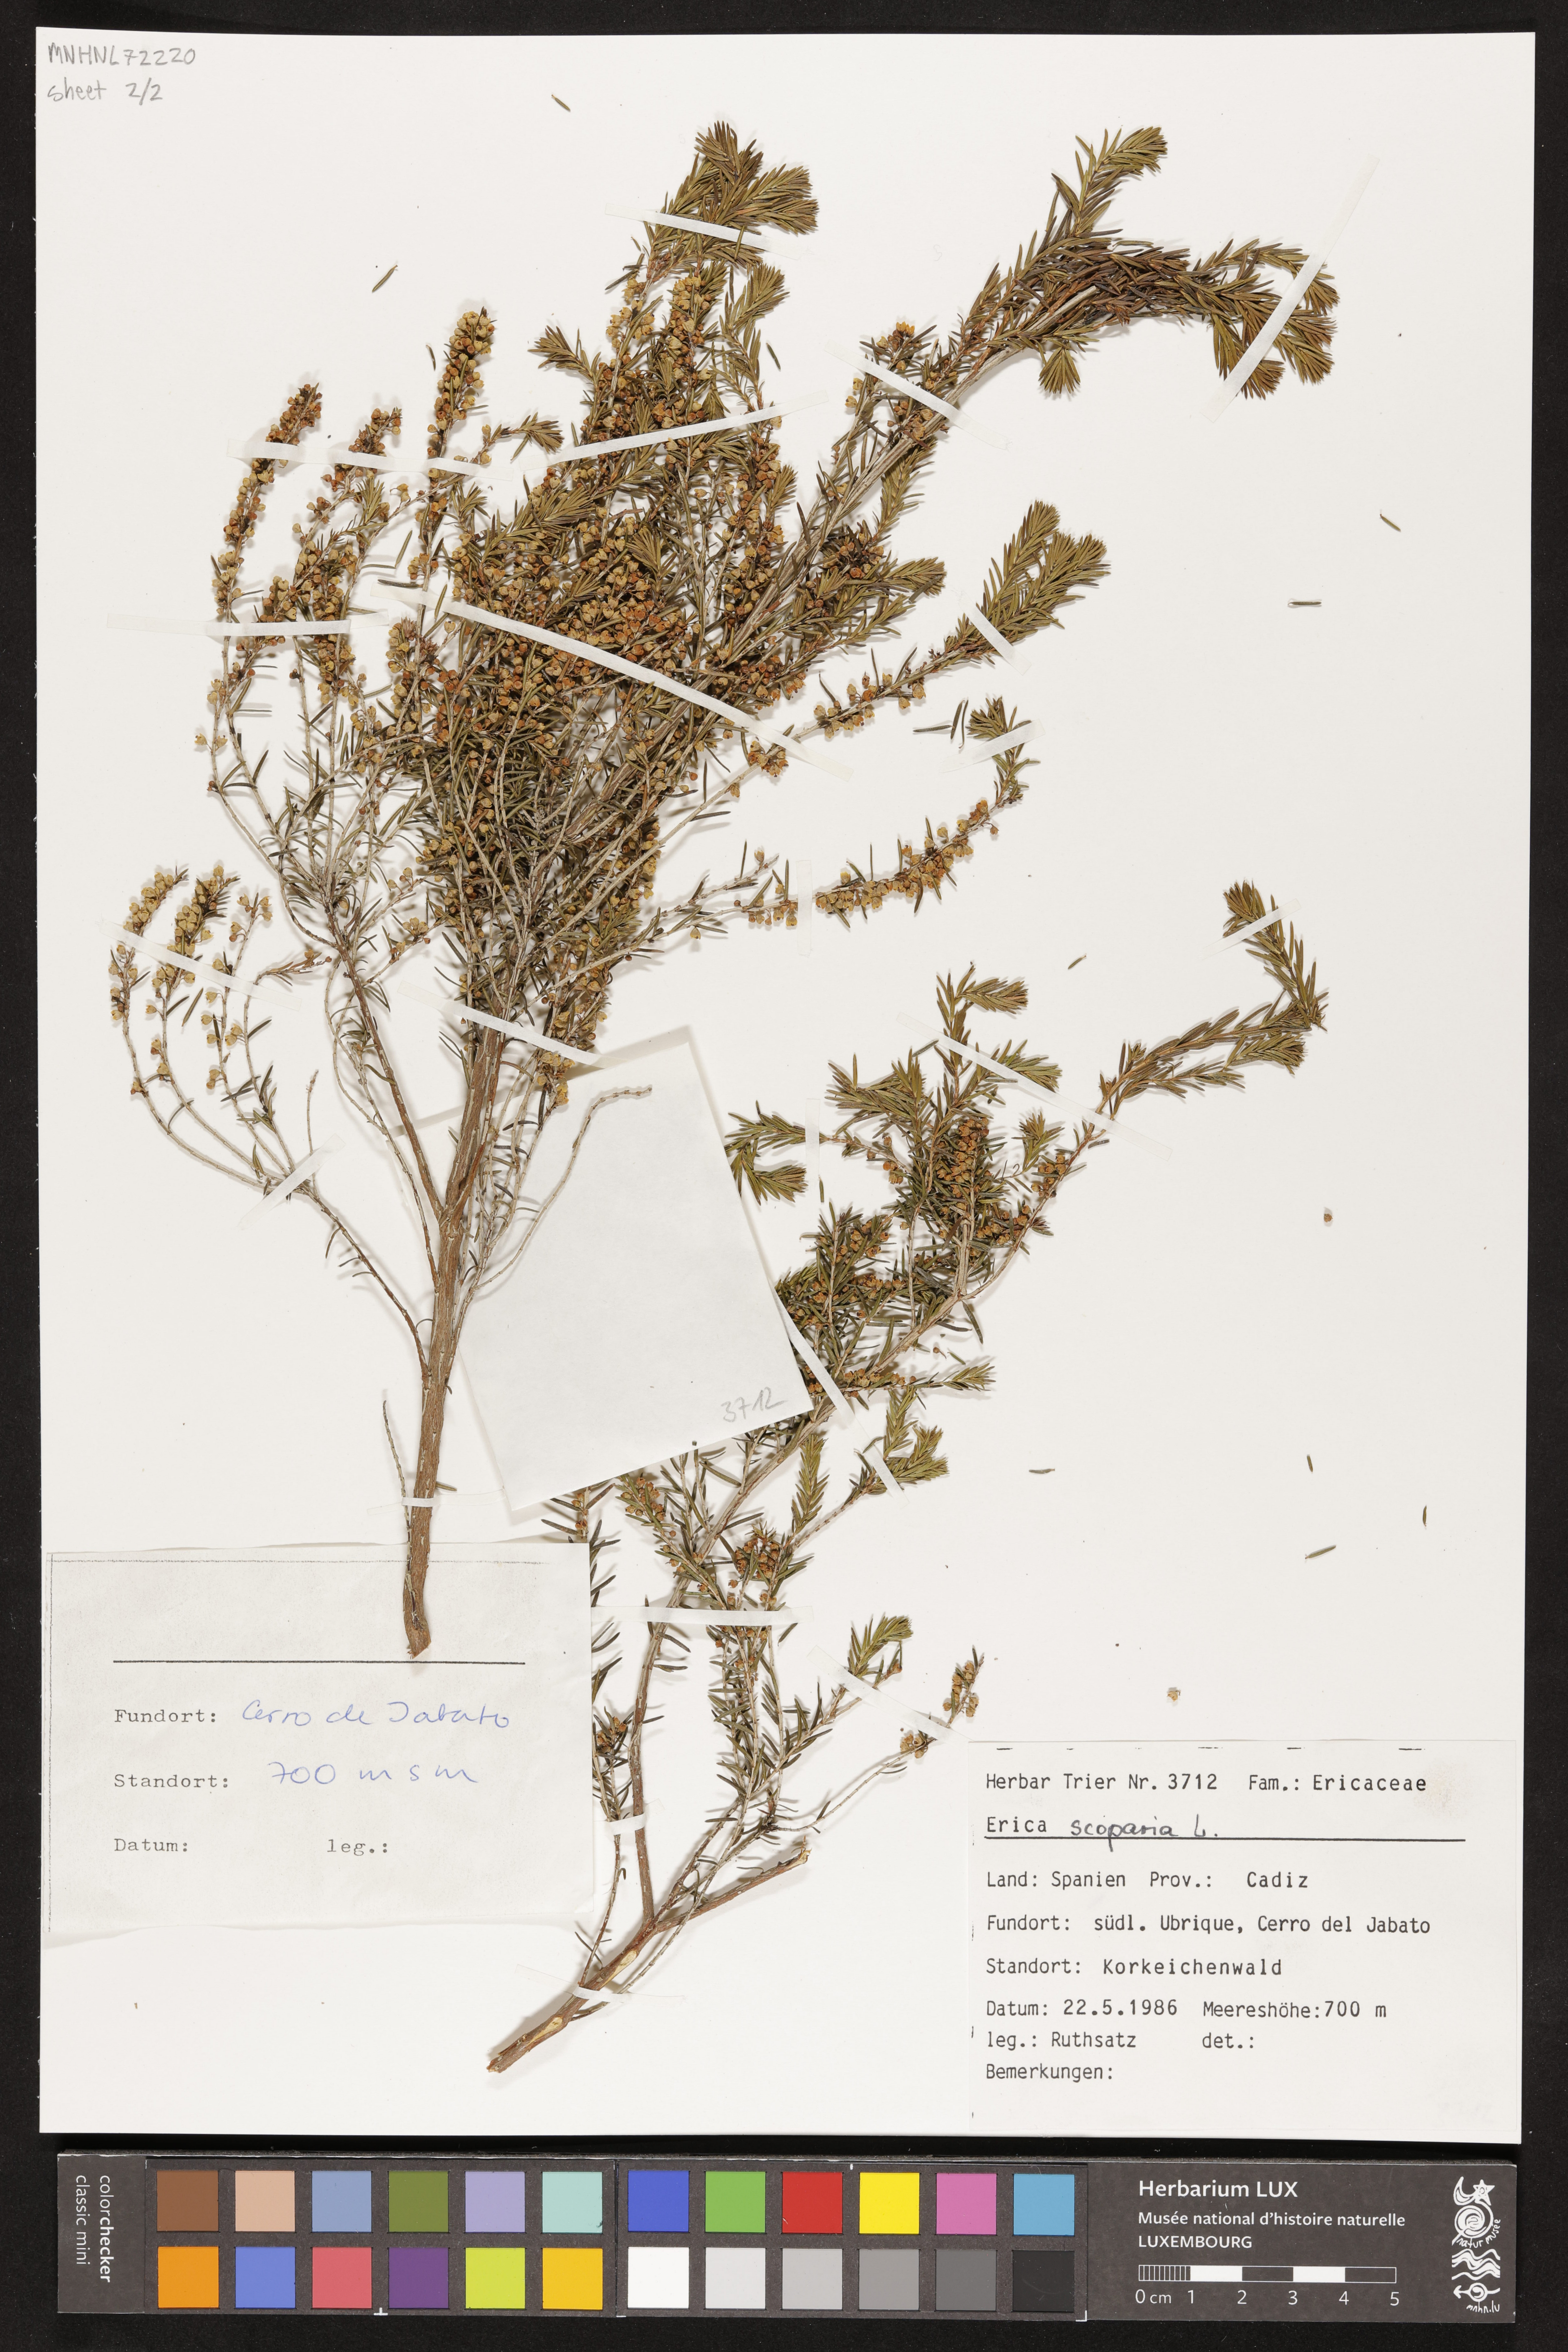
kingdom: Plantae
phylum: Tracheophyta
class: Magnoliopsida
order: Ericales
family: Ericaceae
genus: Erica
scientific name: Erica scoparia
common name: Green heather
